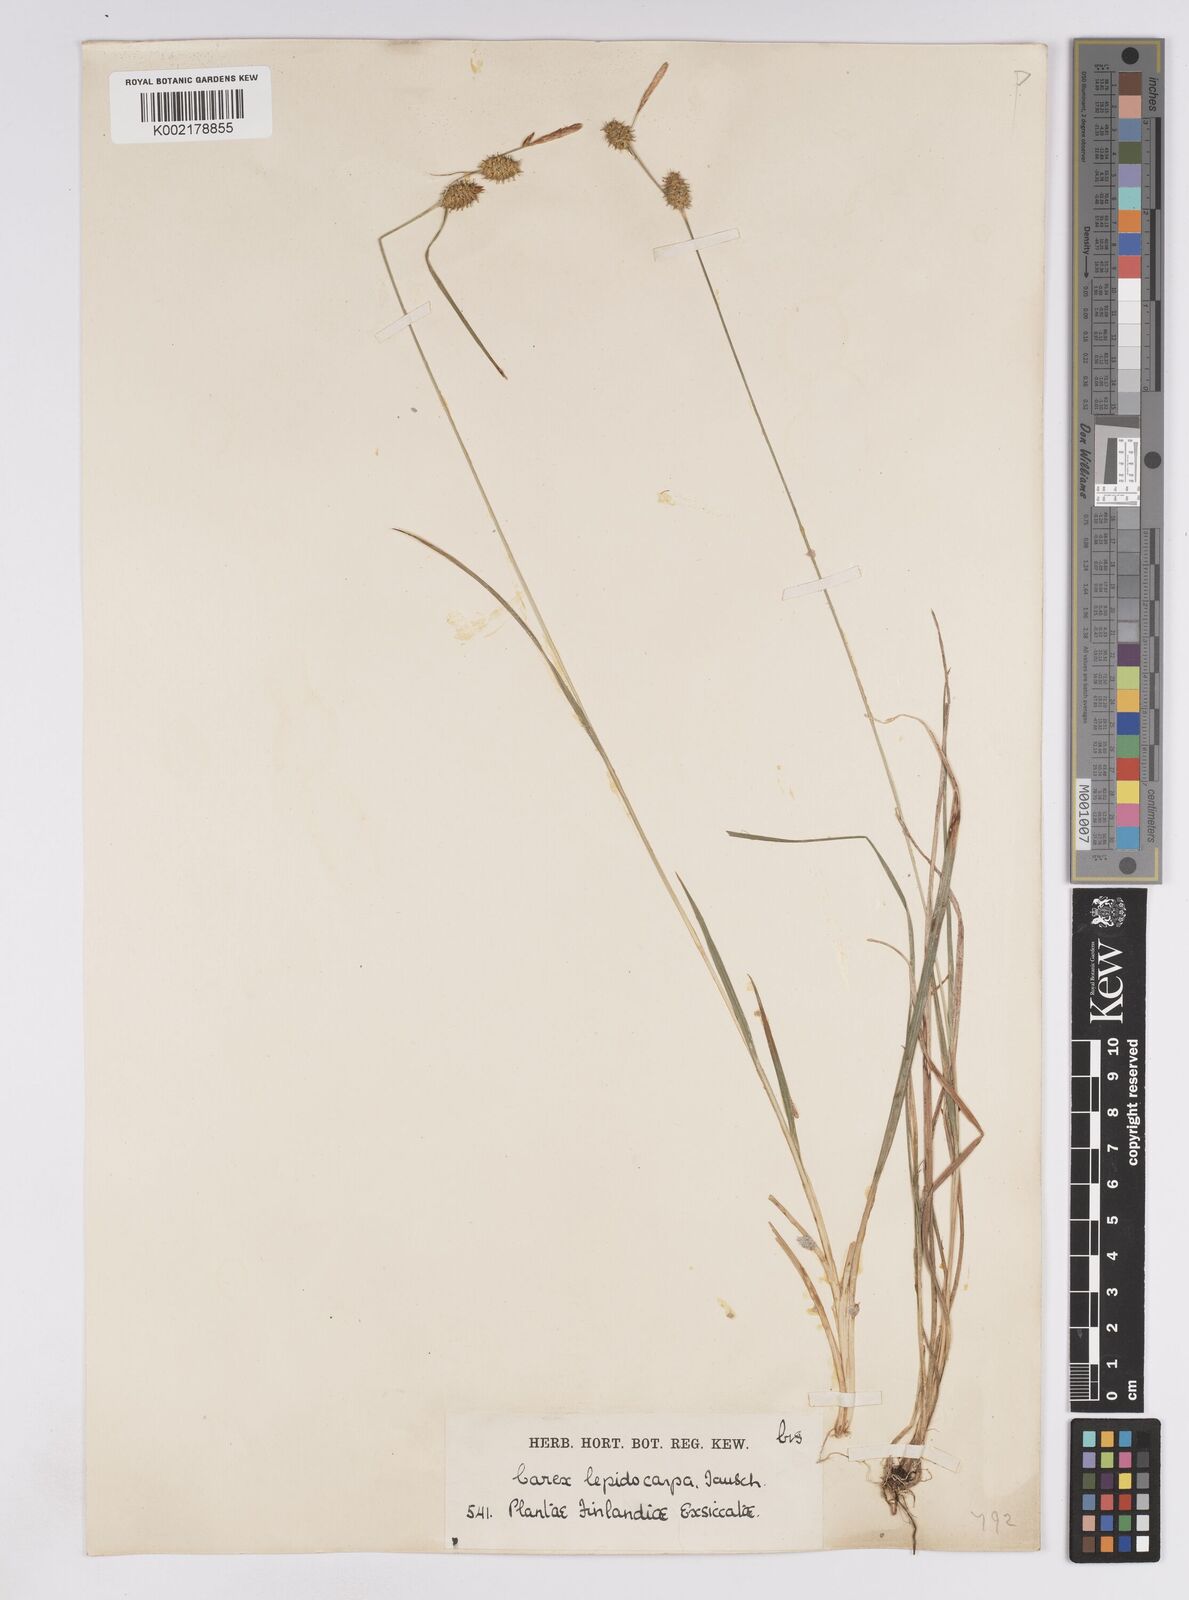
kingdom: Plantae
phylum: Tracheophyta
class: Liliopsida
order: Poales
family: Cyperaceae
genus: Carex
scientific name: Carex lepidocarpa
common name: Long-stalked yellow-sedge
